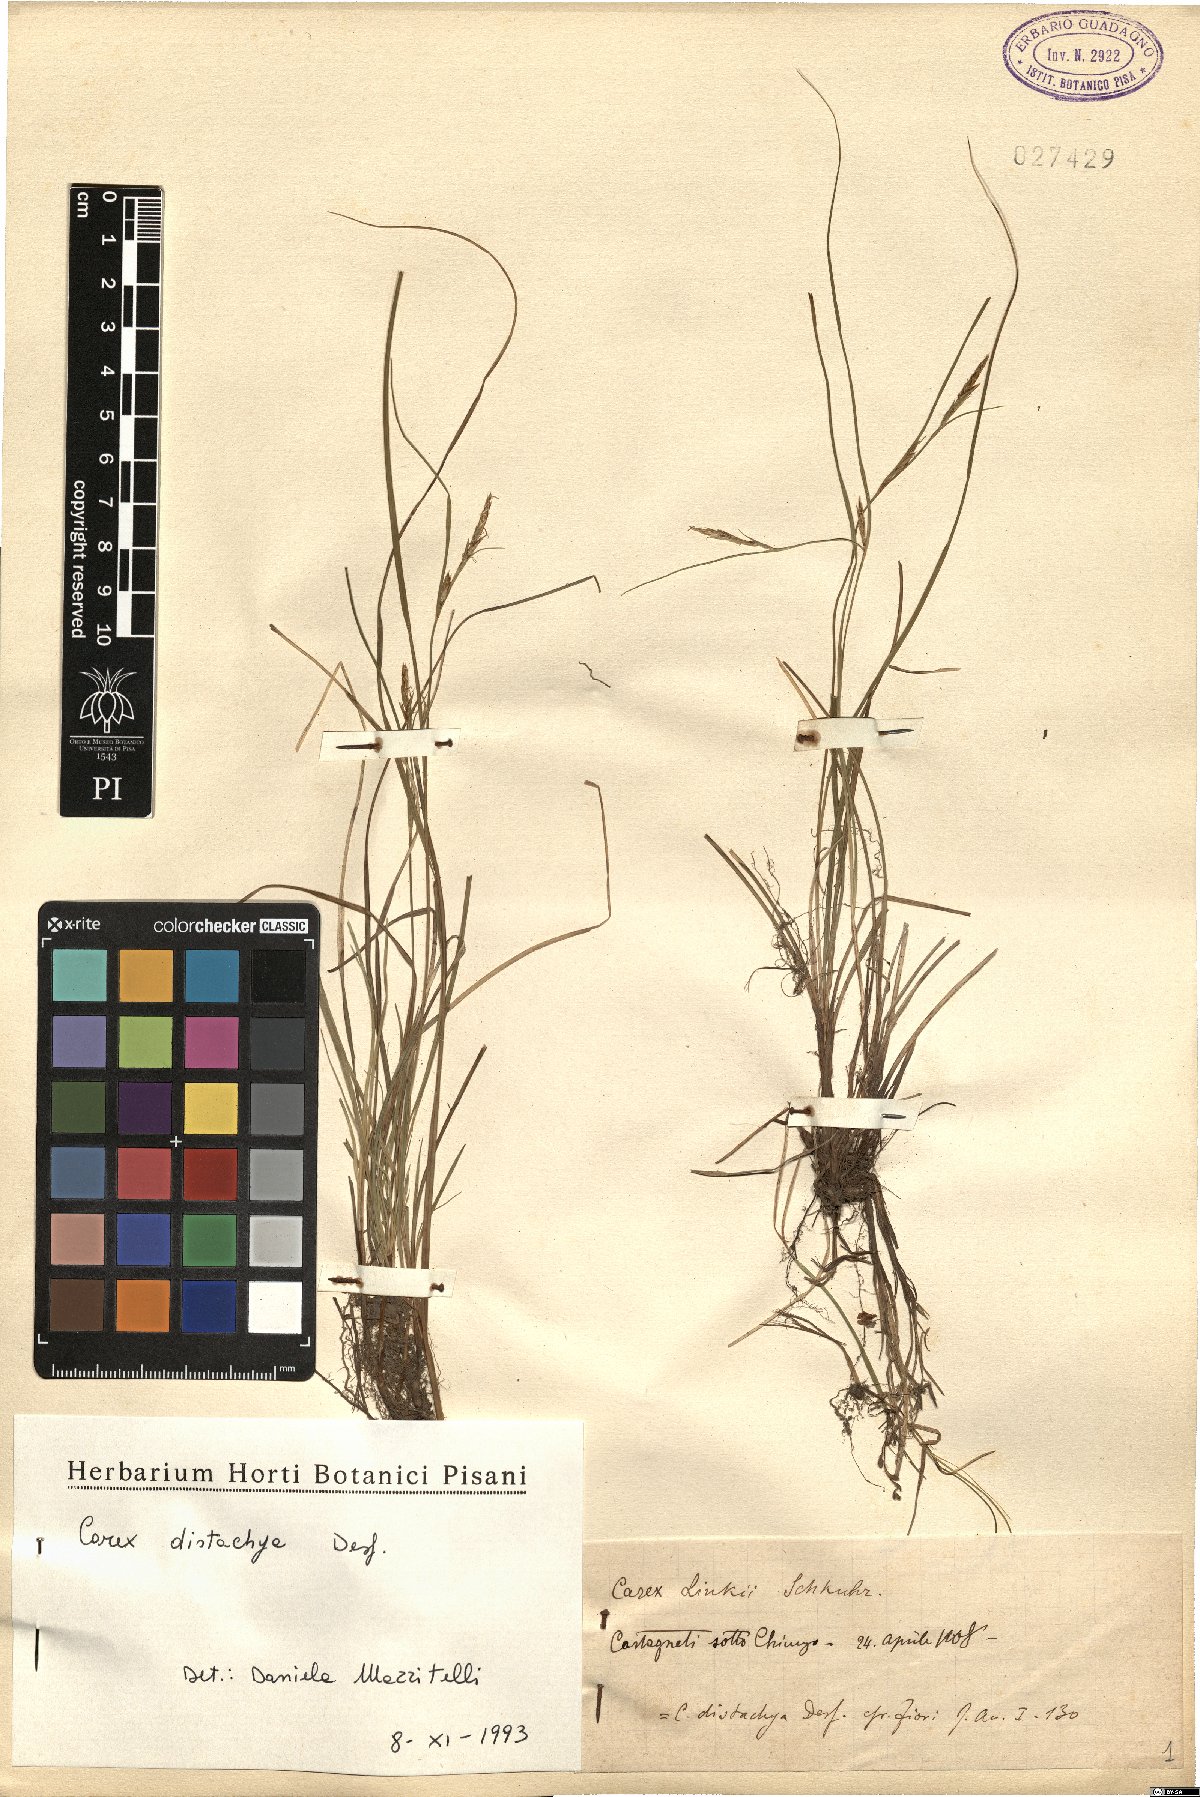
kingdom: Plantae
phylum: Tracheophyta
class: Liliopsida
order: Poales
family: Cyperaceae
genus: Carex
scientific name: Carex distachya
